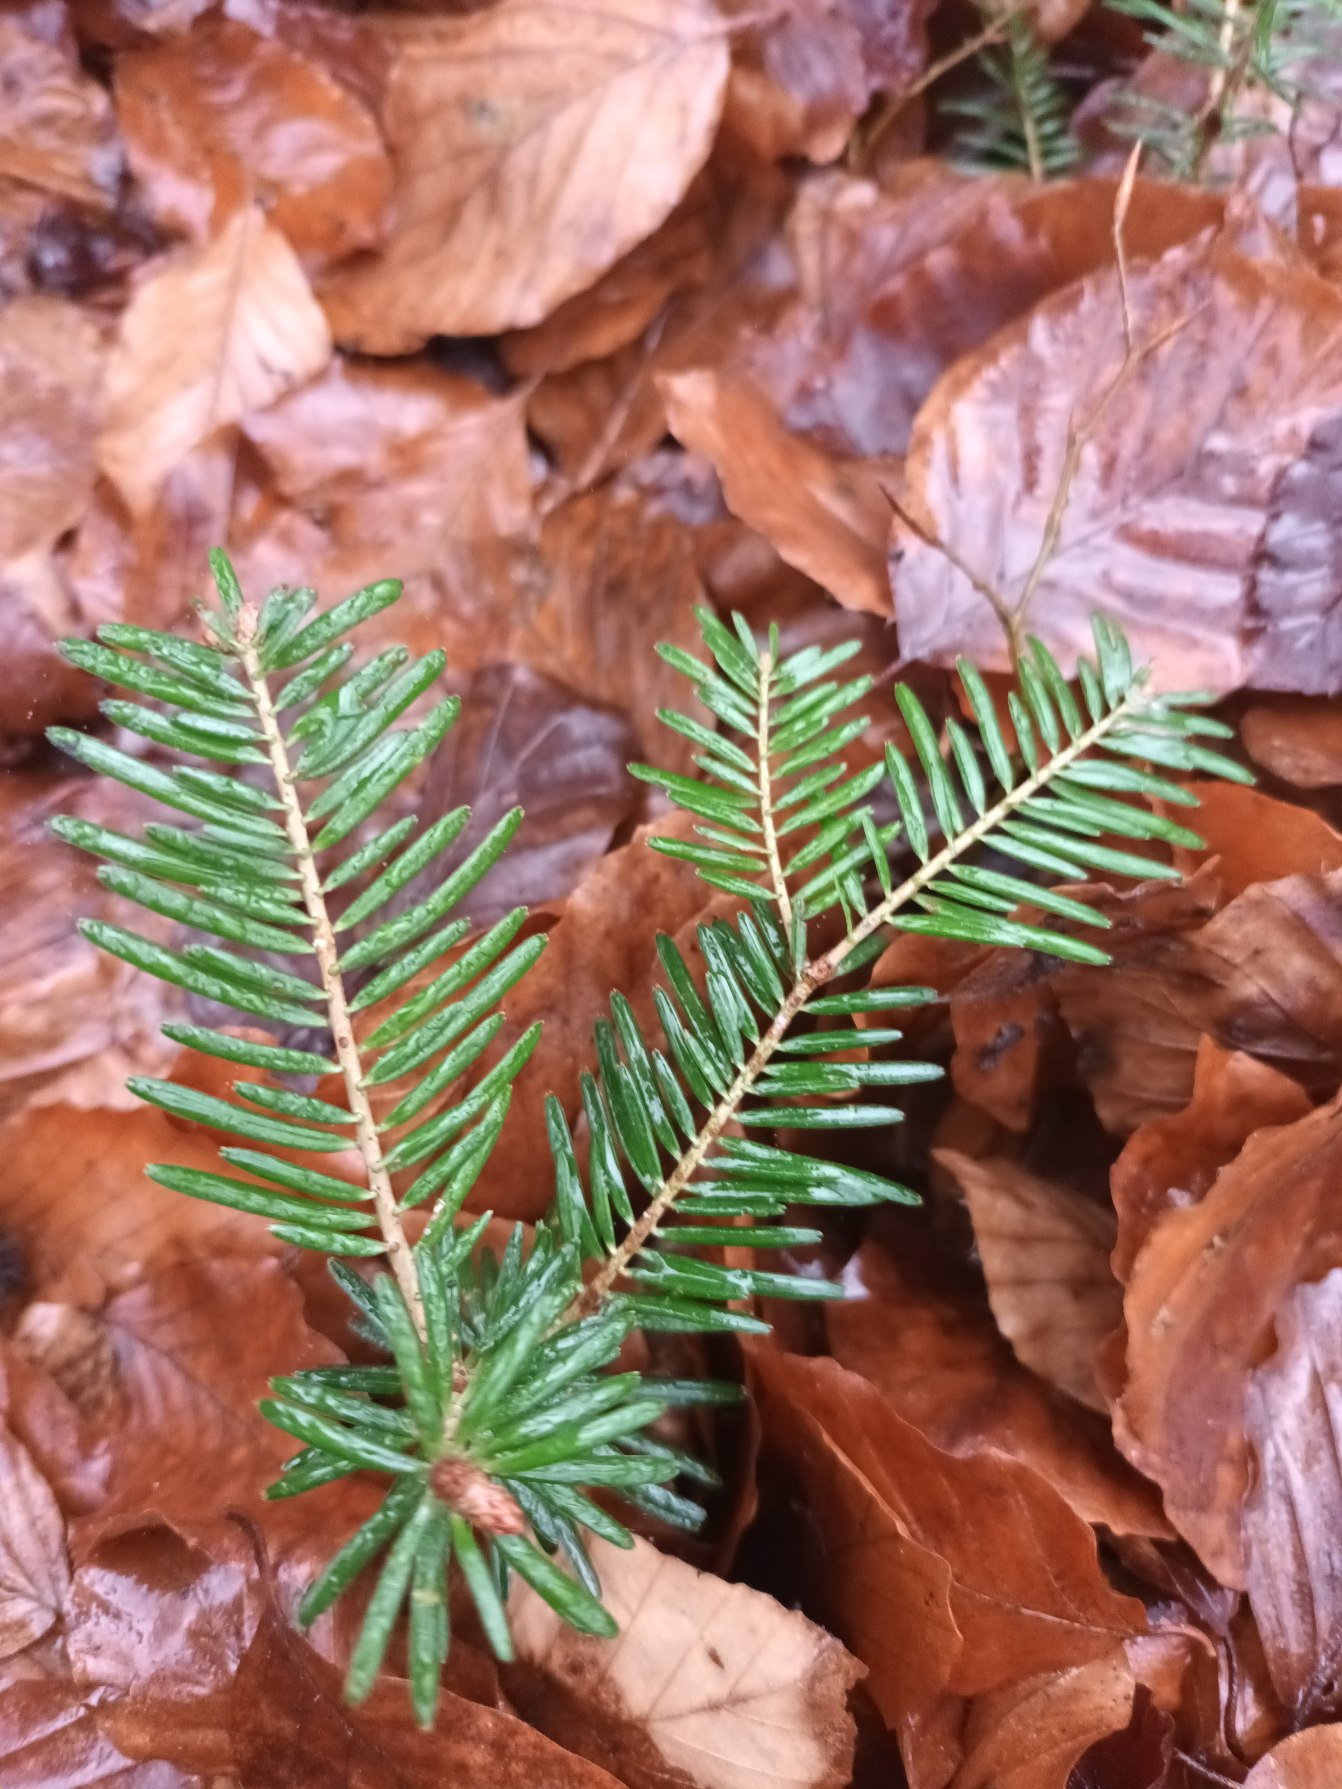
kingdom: Plantae
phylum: Tracheophyta
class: Pinopsida
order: Pinales
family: Pinaceae
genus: Abies
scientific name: Abies grandis
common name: Kæmpegran
